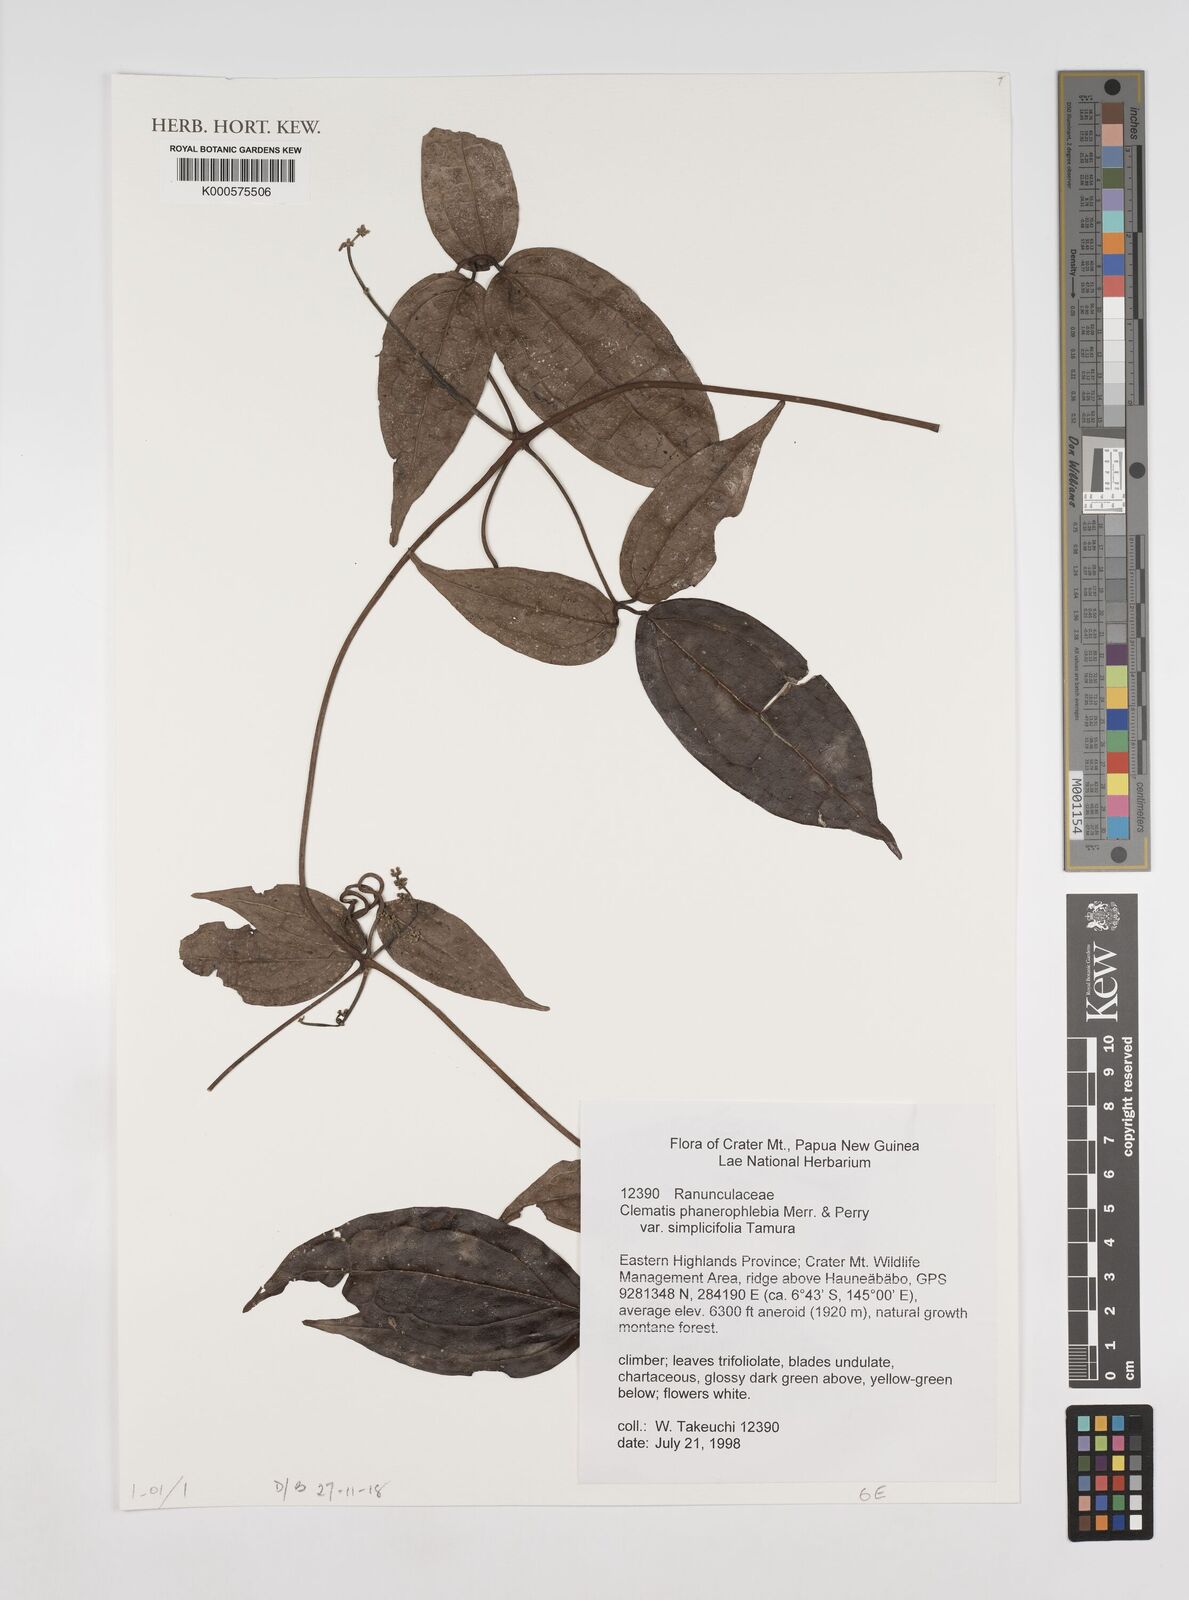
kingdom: Plantae
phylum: Tracheophyta
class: Magnoliopsida
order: Ranunculales
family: Ranunculaceae
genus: Clematis
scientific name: Clematis phanerophlebia
